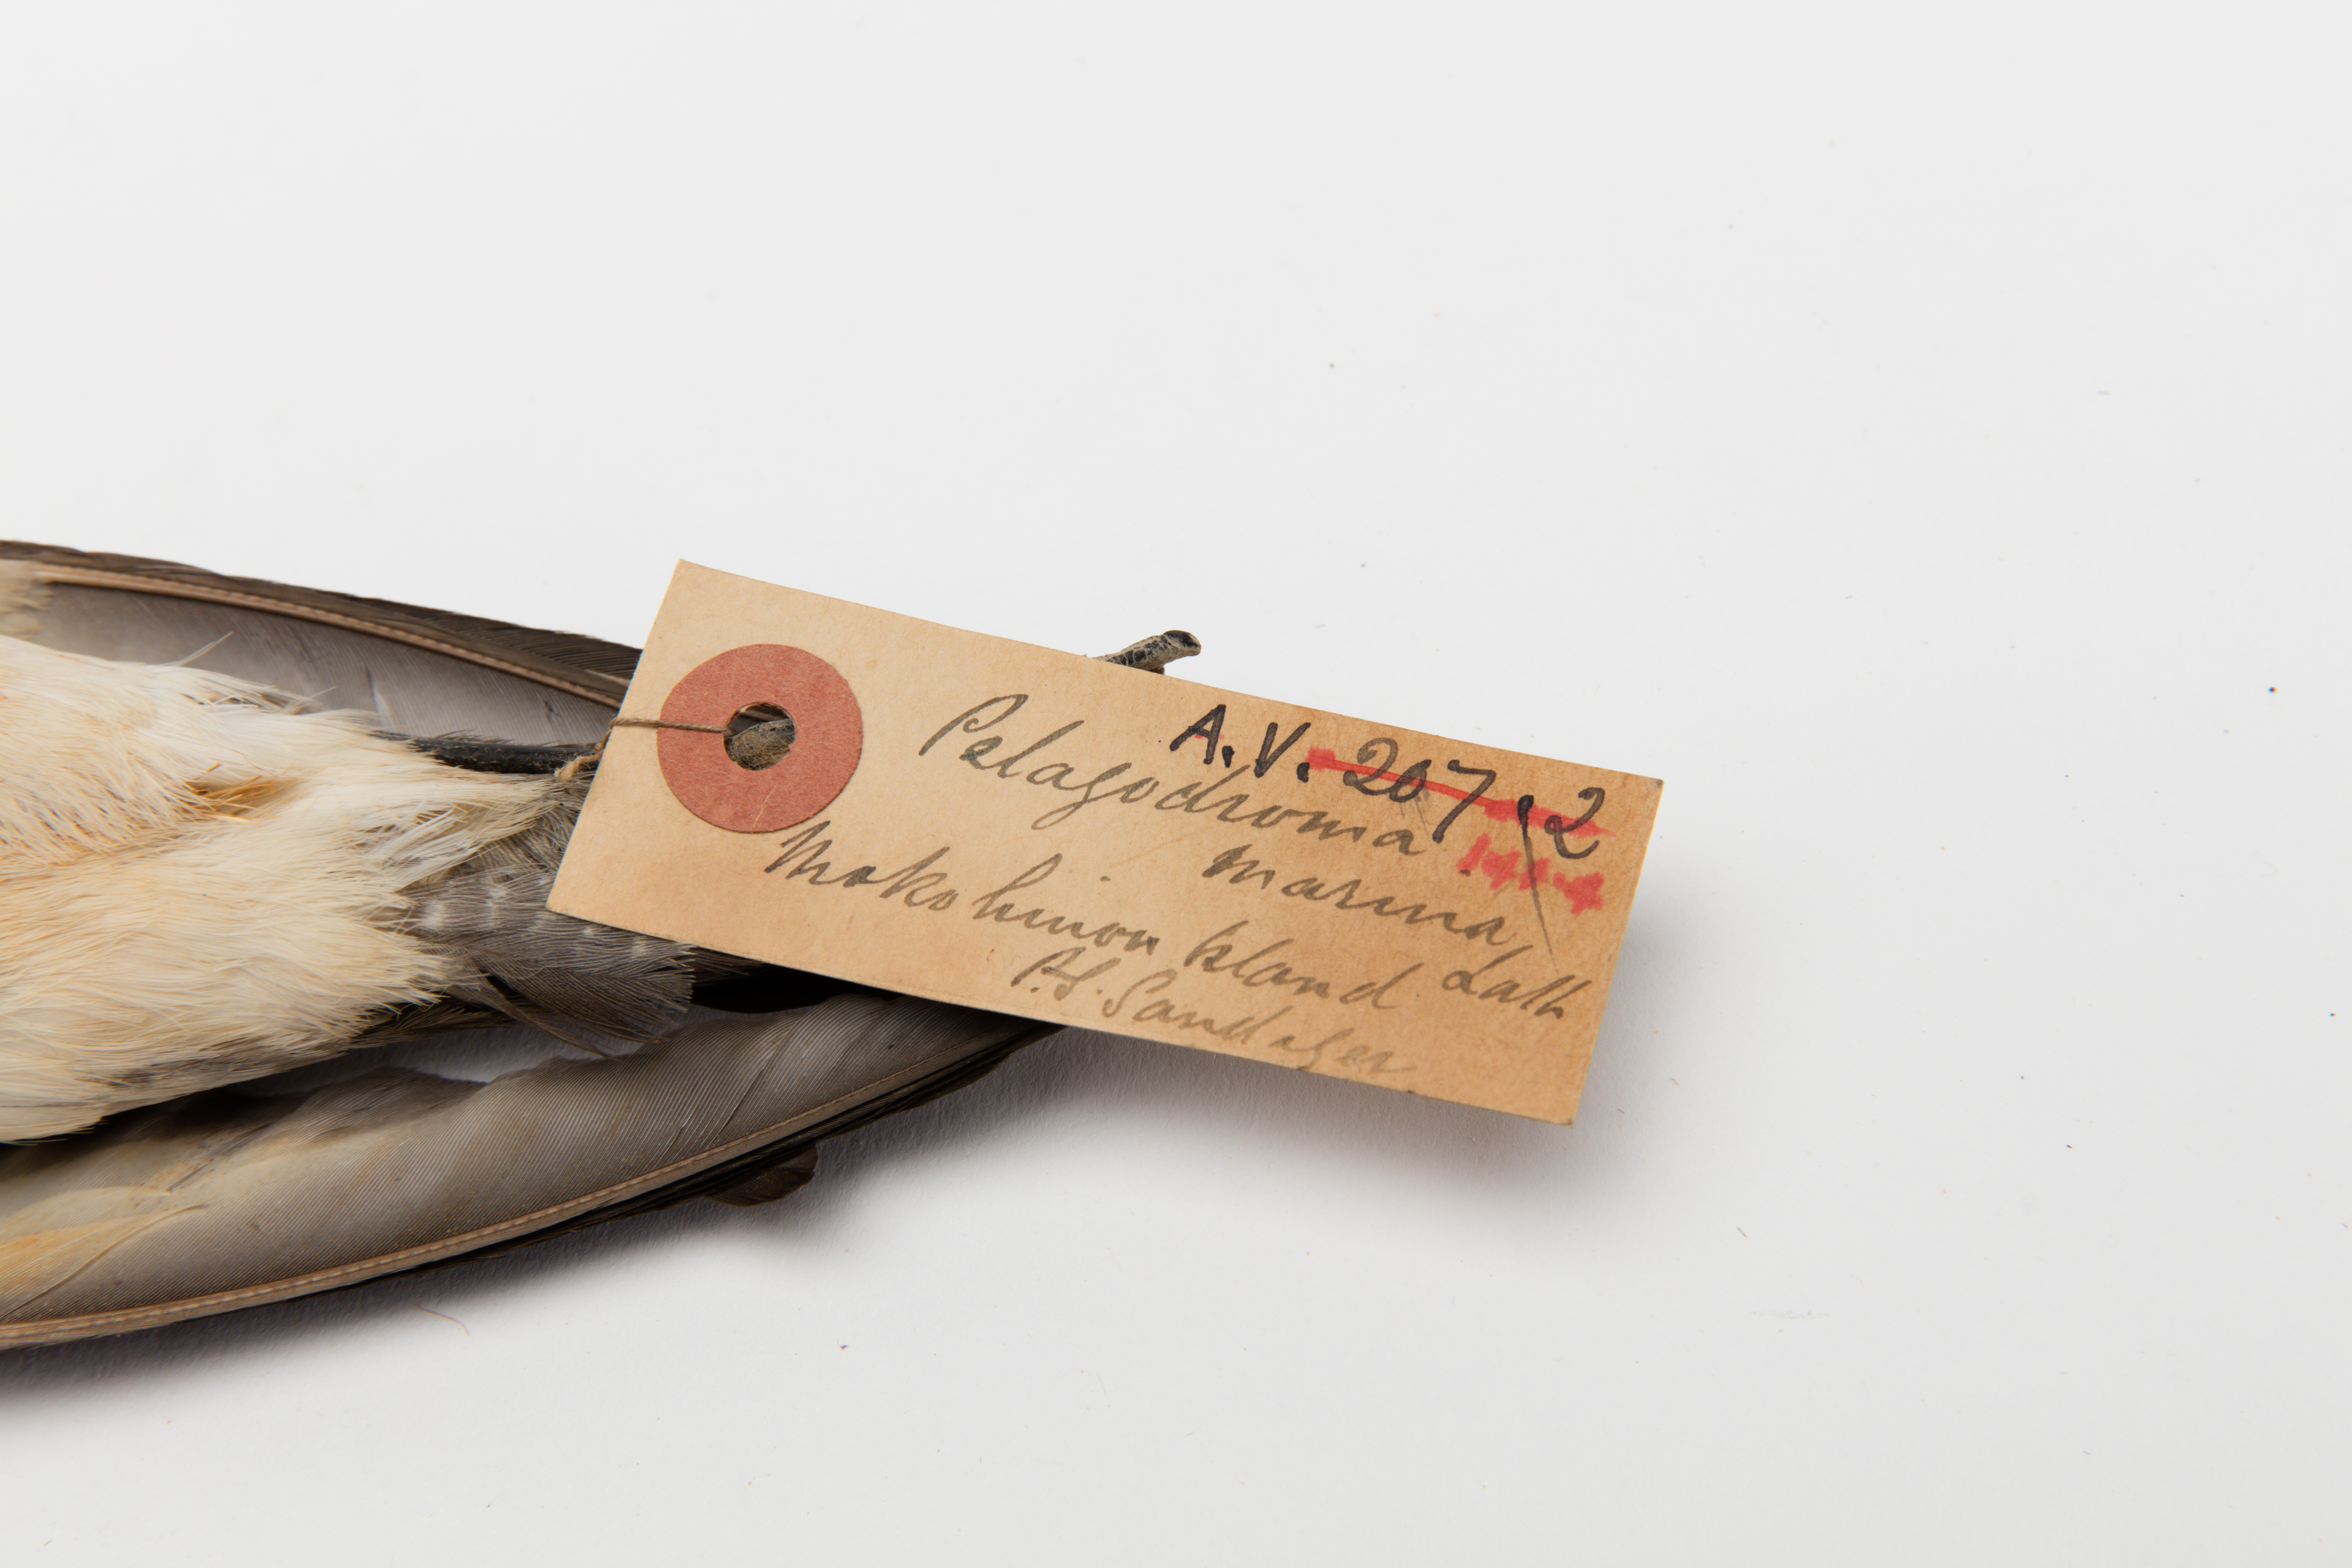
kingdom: Animalia
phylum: Chordata
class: Aves
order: Procellariiformes
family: Hydrobatidae
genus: Pelagodroma
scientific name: Pelagodroma marina
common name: White-faced storm-petrel
